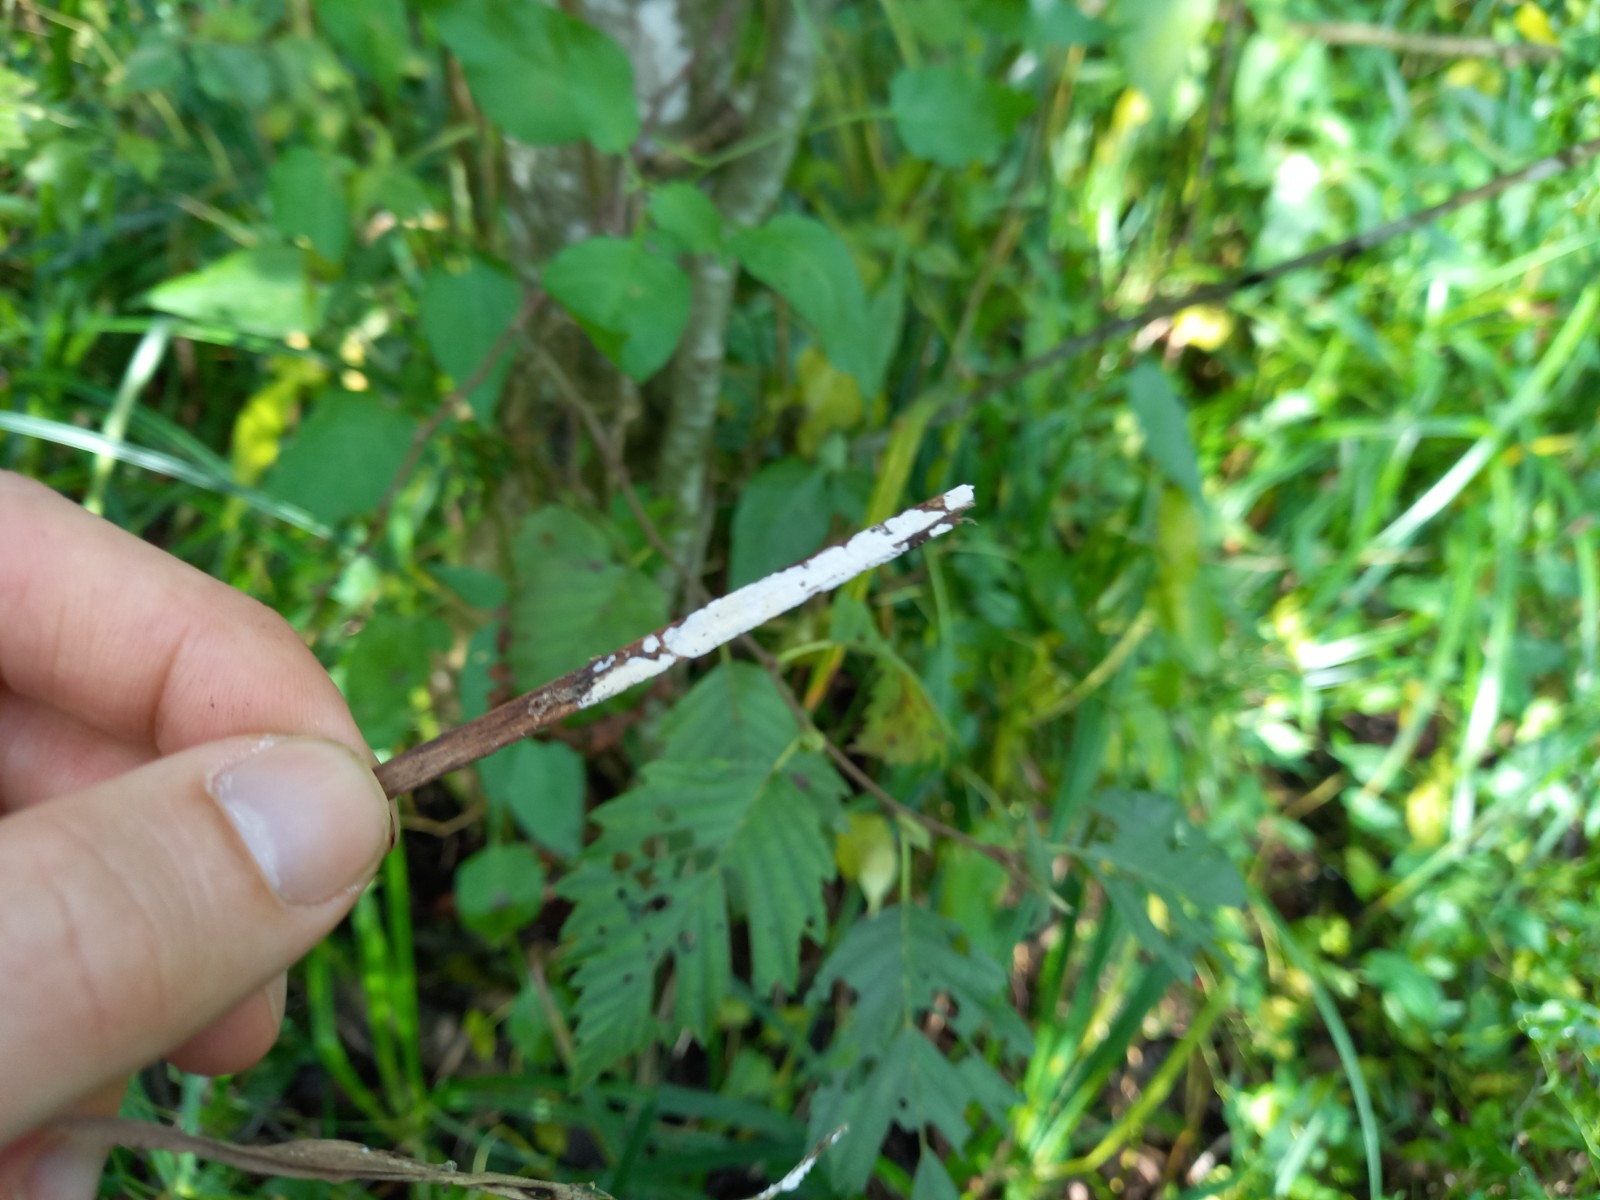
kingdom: Fungi
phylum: Basidiomycota
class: Agaricomycetes
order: Polyporales
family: Polyporaceae
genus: Epithele
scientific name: Epithele typhae
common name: starpig
